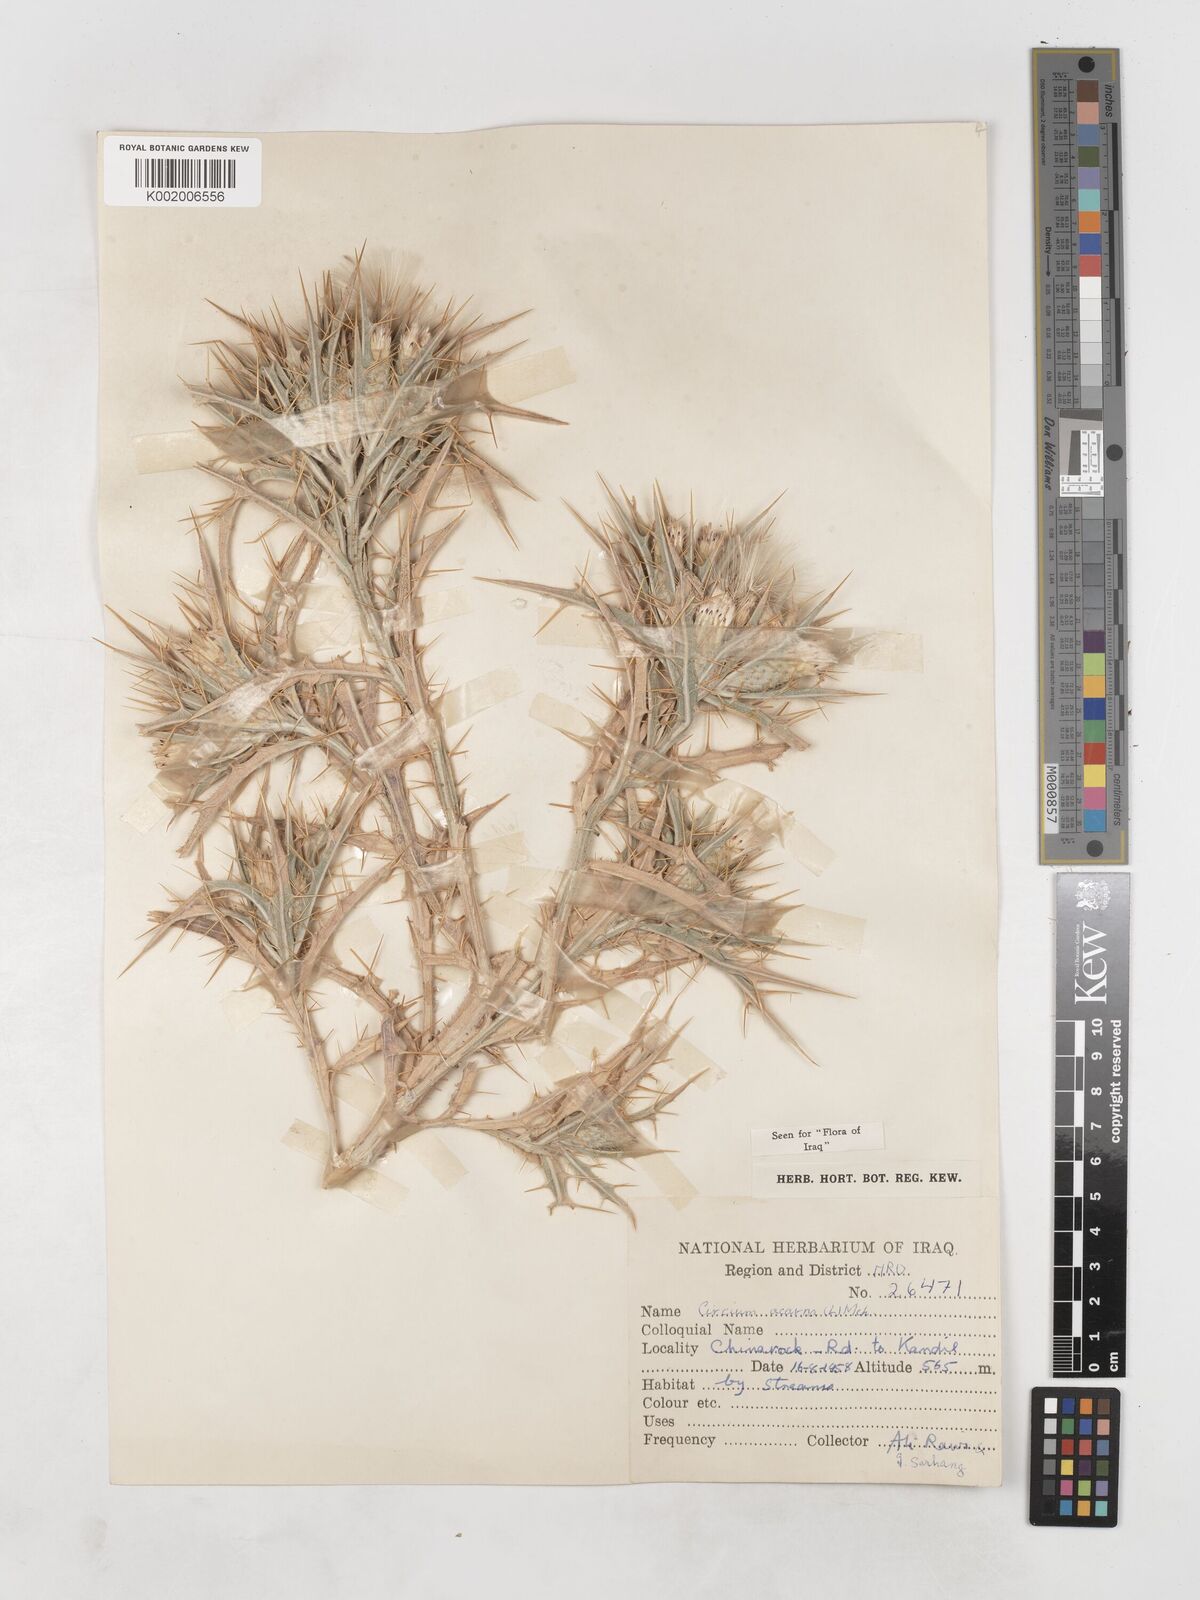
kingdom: Plantae
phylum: Tracheophyta
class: Magnoliopsida
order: Asterales
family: Asteraceae
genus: Picnomon
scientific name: Picnomon acarna
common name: Soldier thistle
